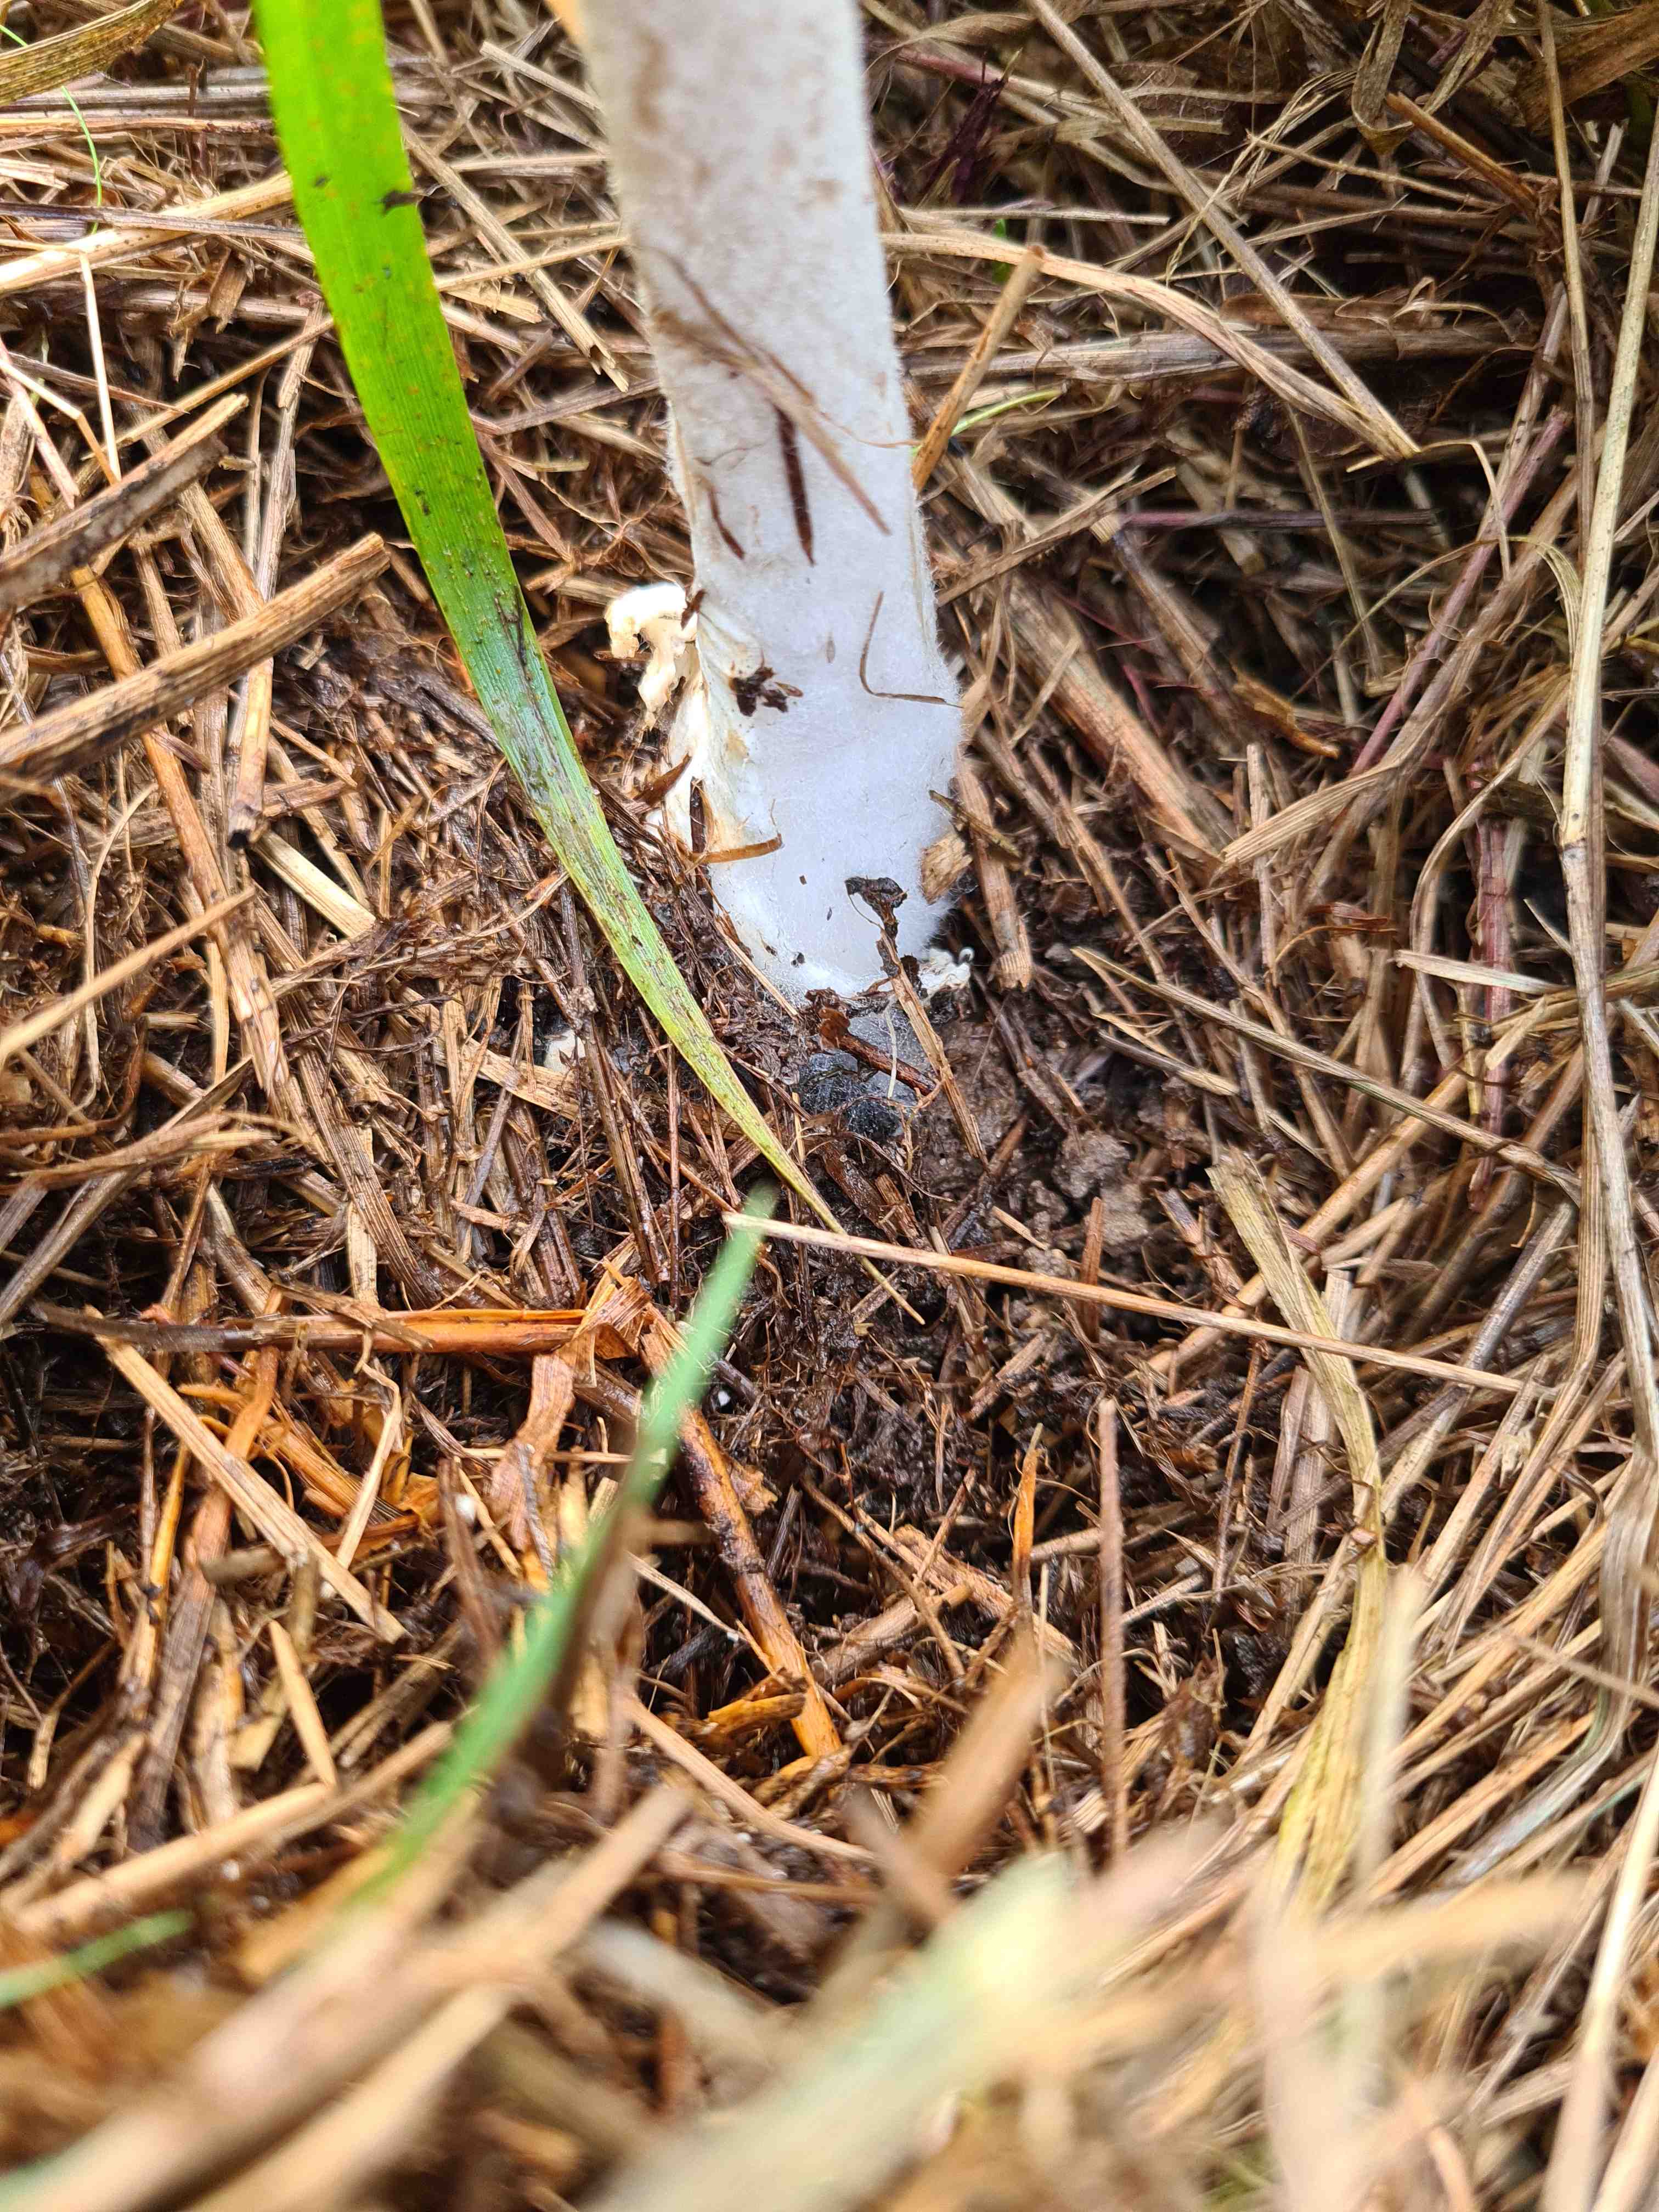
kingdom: Fungi
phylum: Basidiomycota
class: Agaricomycetes
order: Agaricales
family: Pluteaceae
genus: Volvopluteus
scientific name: Volvopluteus gloiocephalus
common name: høj posesvamp
